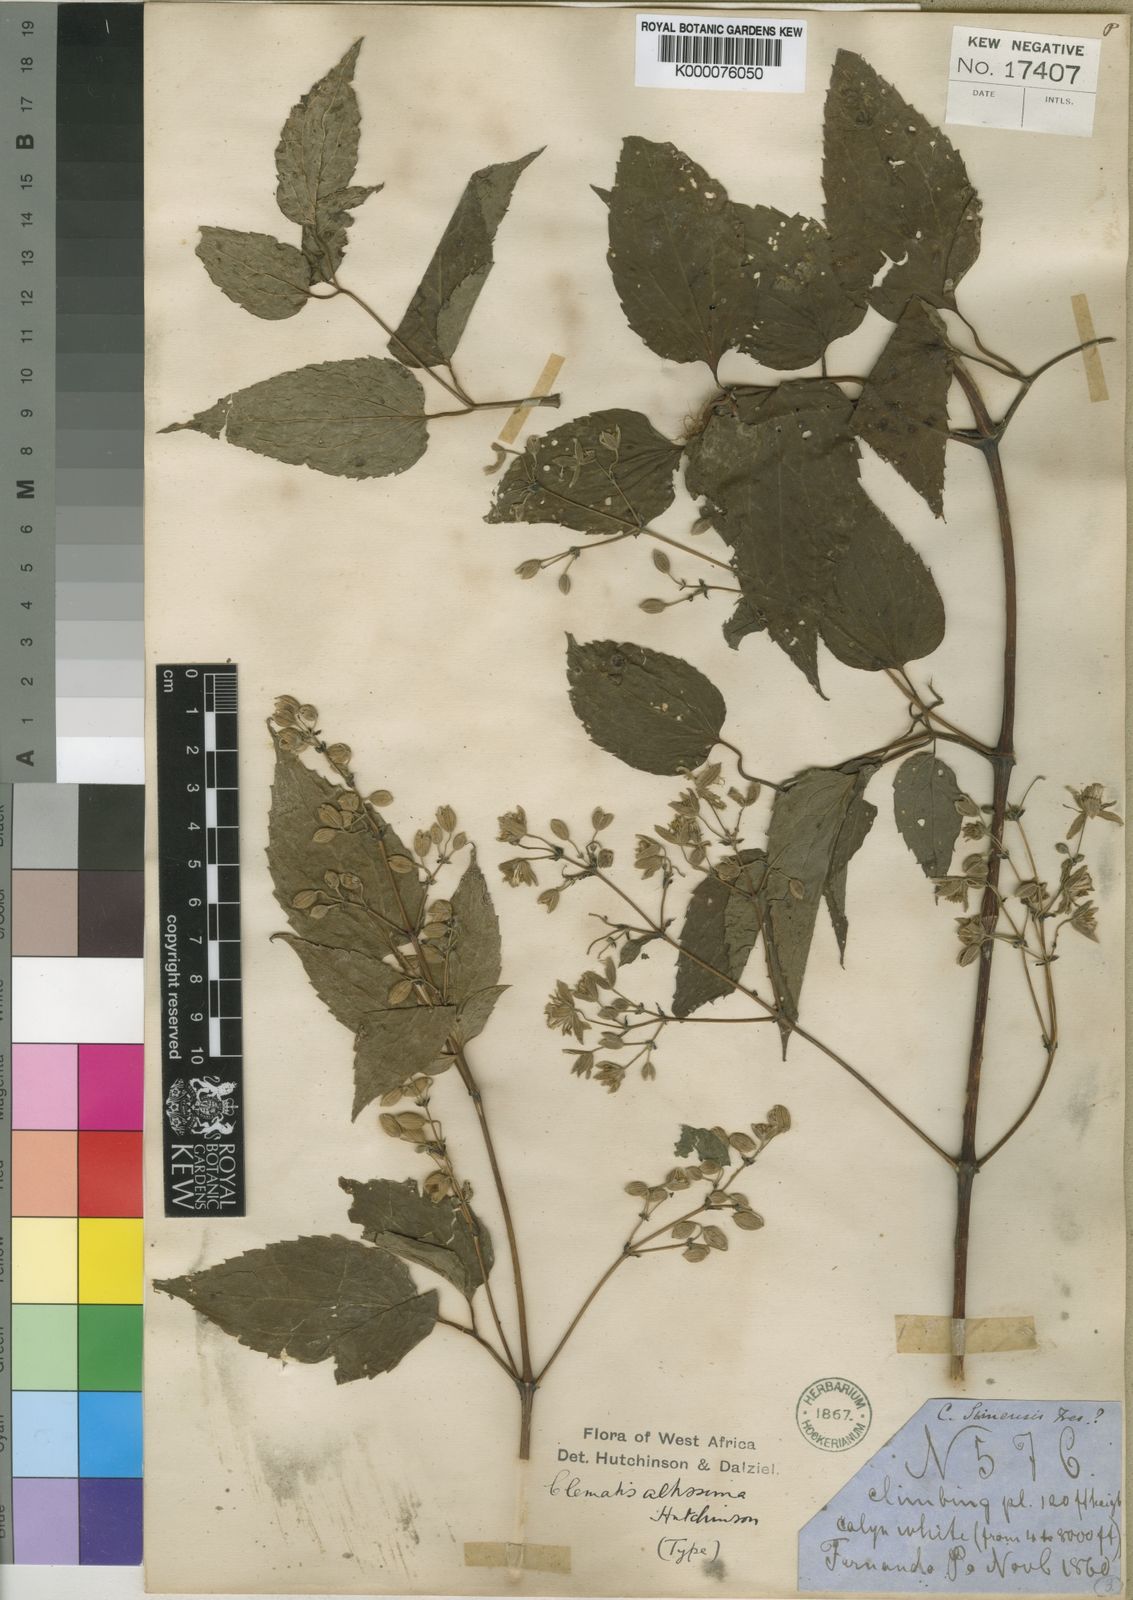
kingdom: Plantae
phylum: Tracheophyta
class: Magnoliopsida
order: Ranunculales
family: Ranunculaceae
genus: Clematis
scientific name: Clematis simensis
